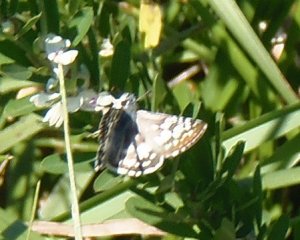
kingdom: Animalia
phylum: Arthropoda
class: Insecta
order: Lepidoptera
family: Hesperiidae
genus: Pyrgus
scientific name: Pyrgus communis
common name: Common Checkered-Skipper
